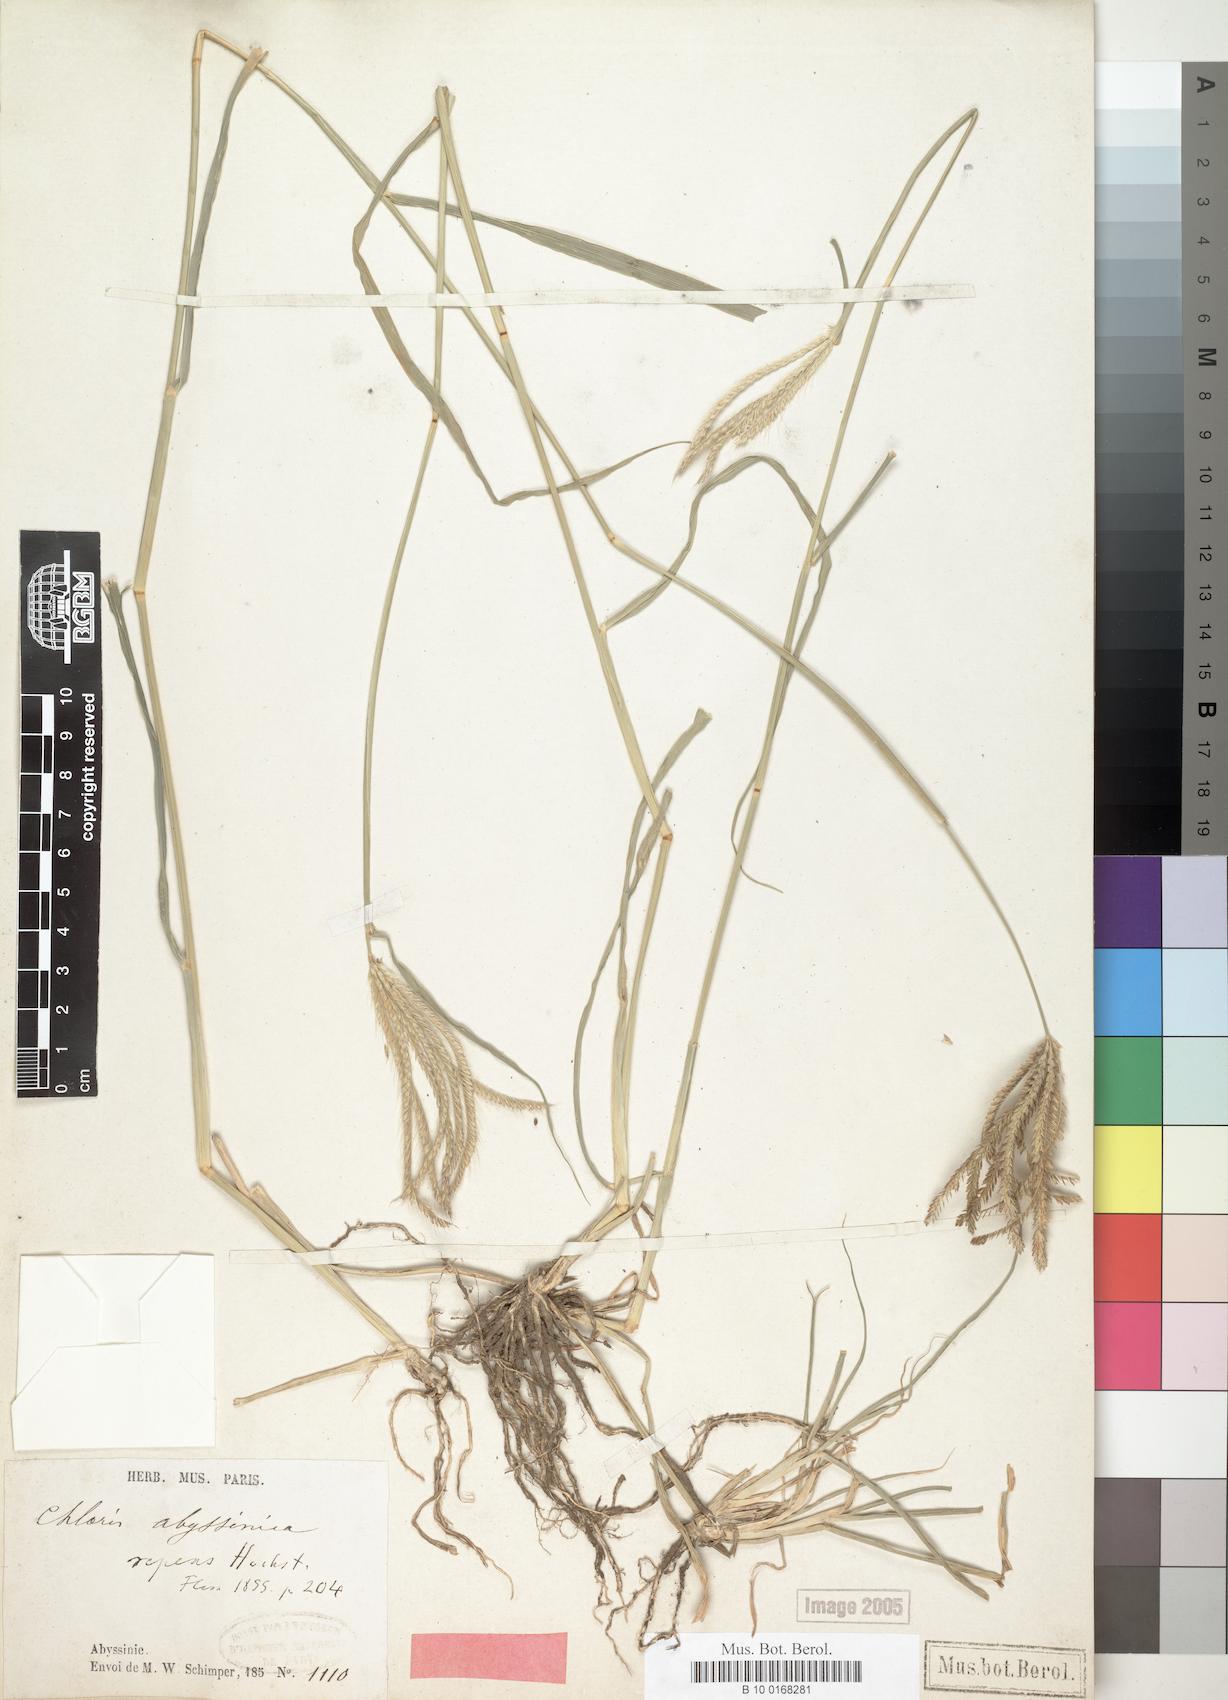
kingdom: Plantae
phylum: Tracheophyta
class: Liliopsida
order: Poales
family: Poaceae
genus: Chloris
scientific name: Chloris gayana
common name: Rhodes grass
